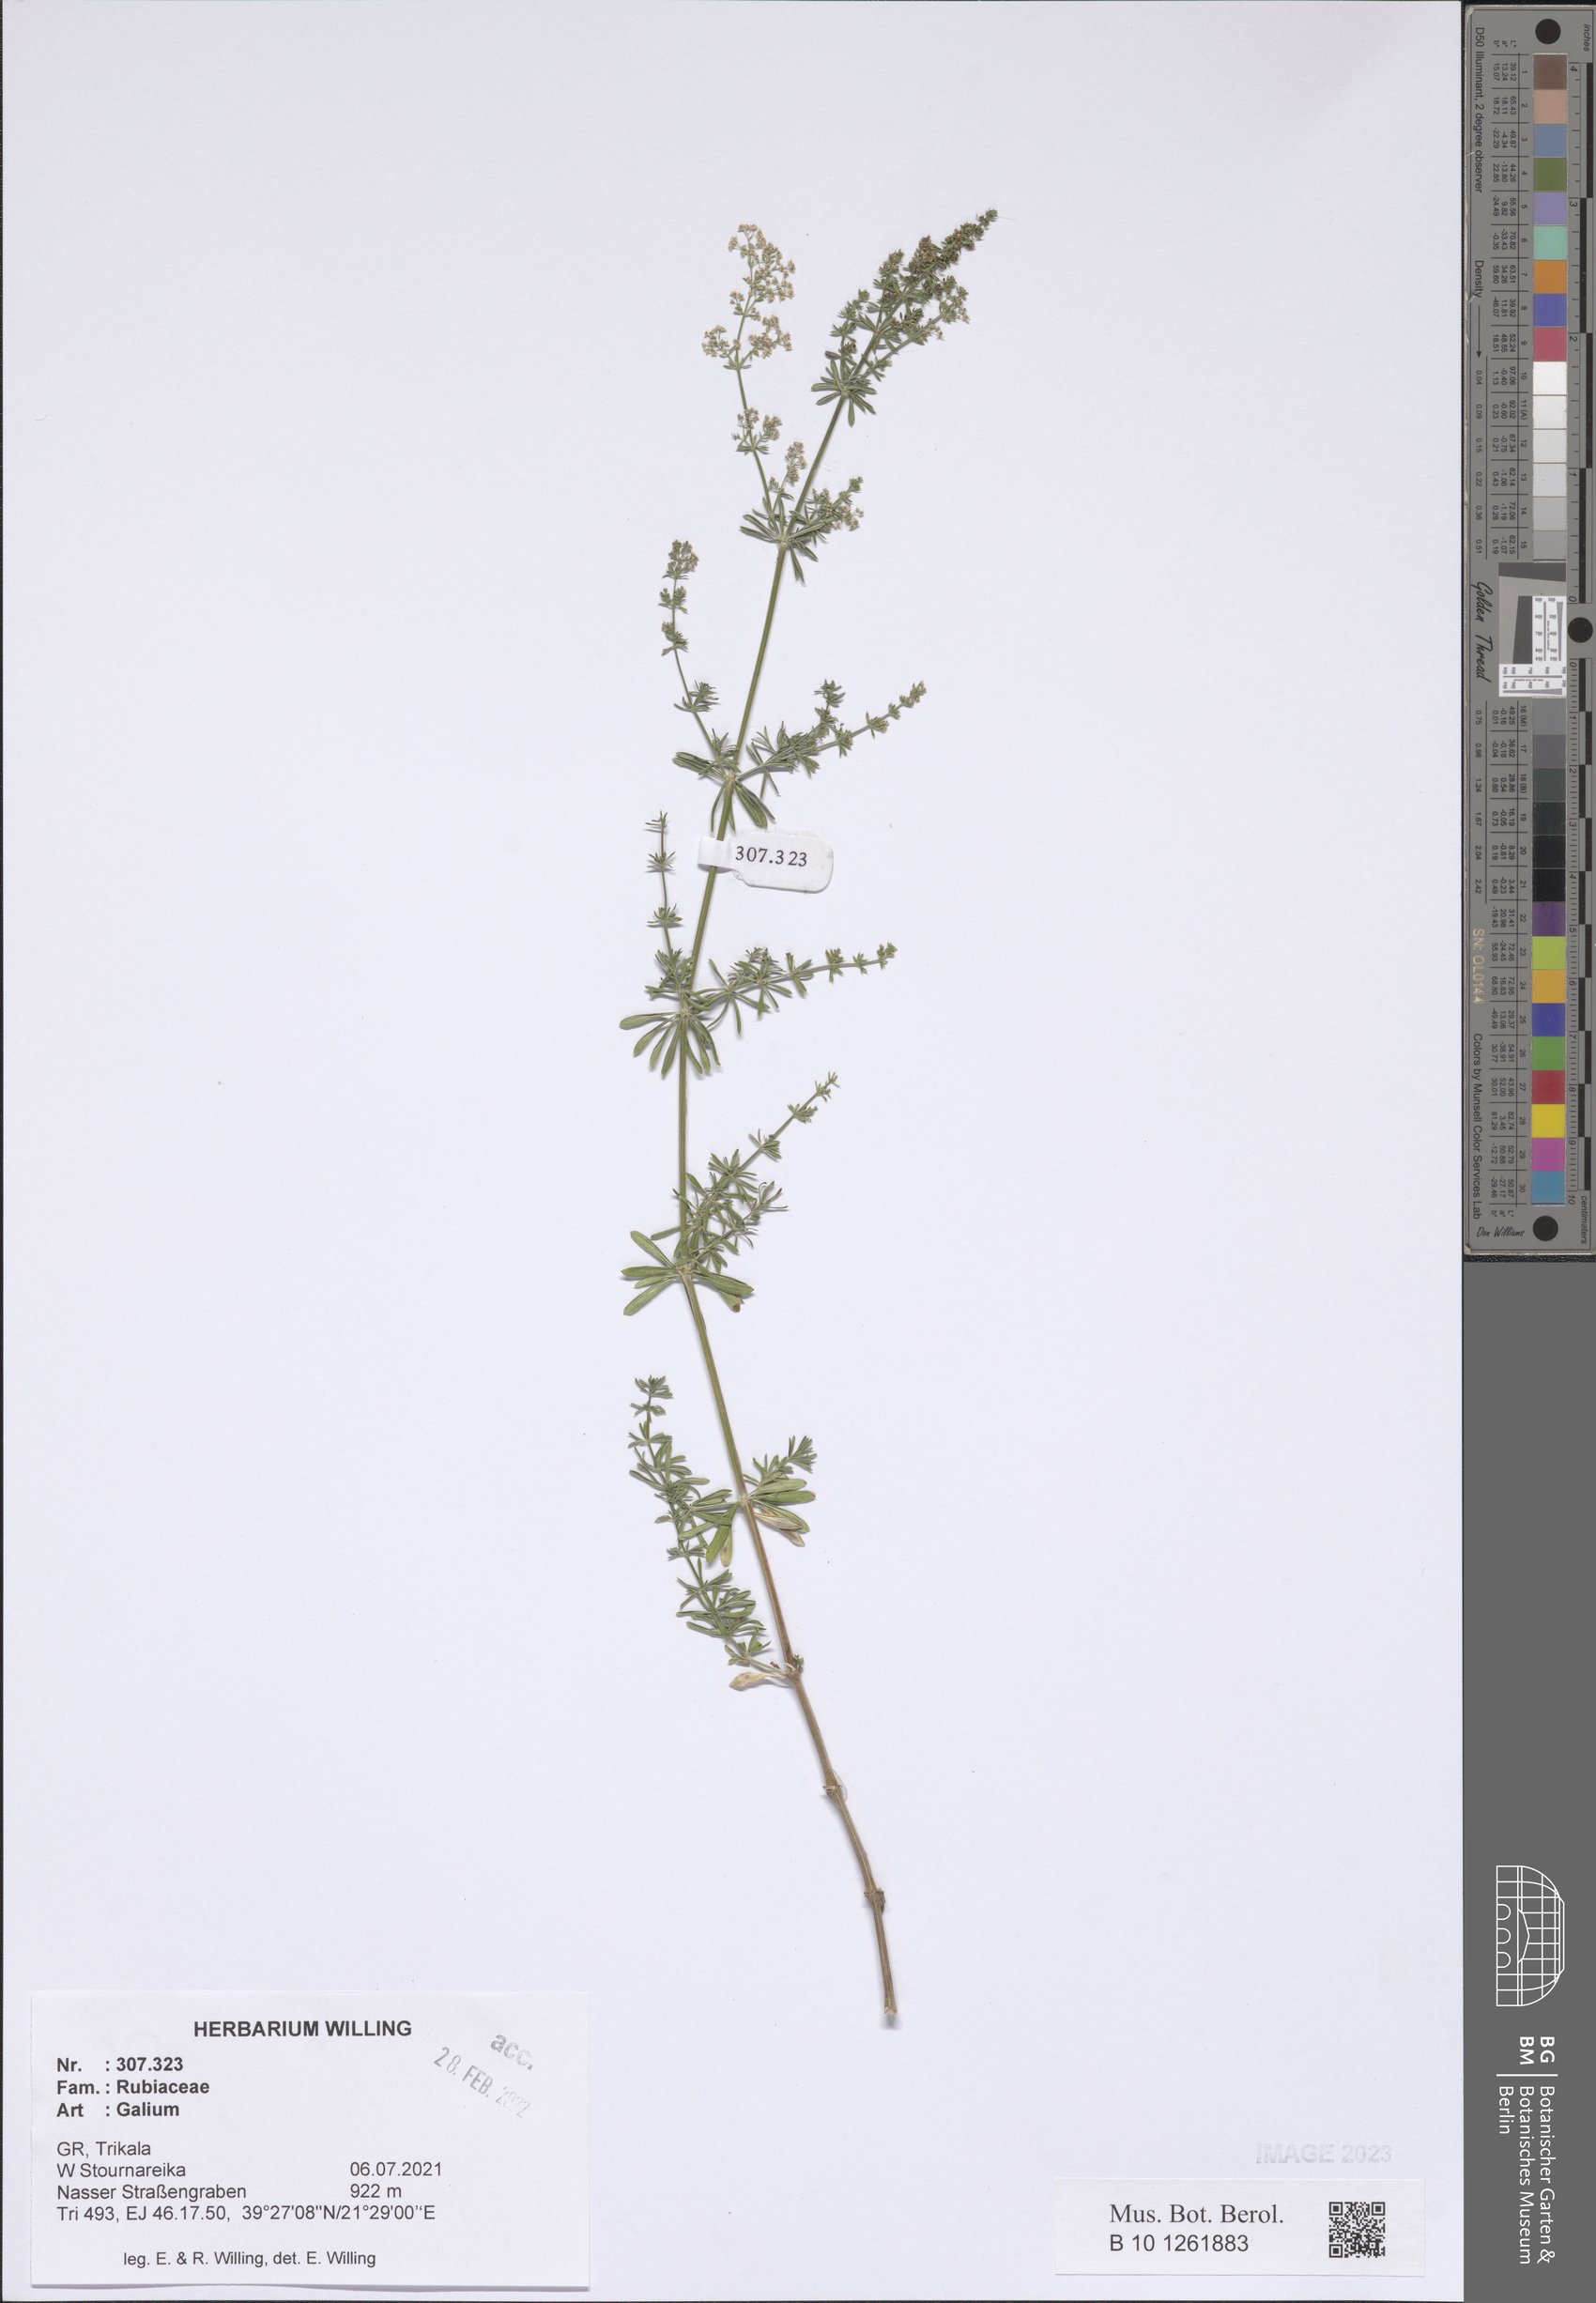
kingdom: Plantae
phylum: Tracheophyta
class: Magnoliopsida
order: Gentianales
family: Rubiaceae
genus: Galium
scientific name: Galium
